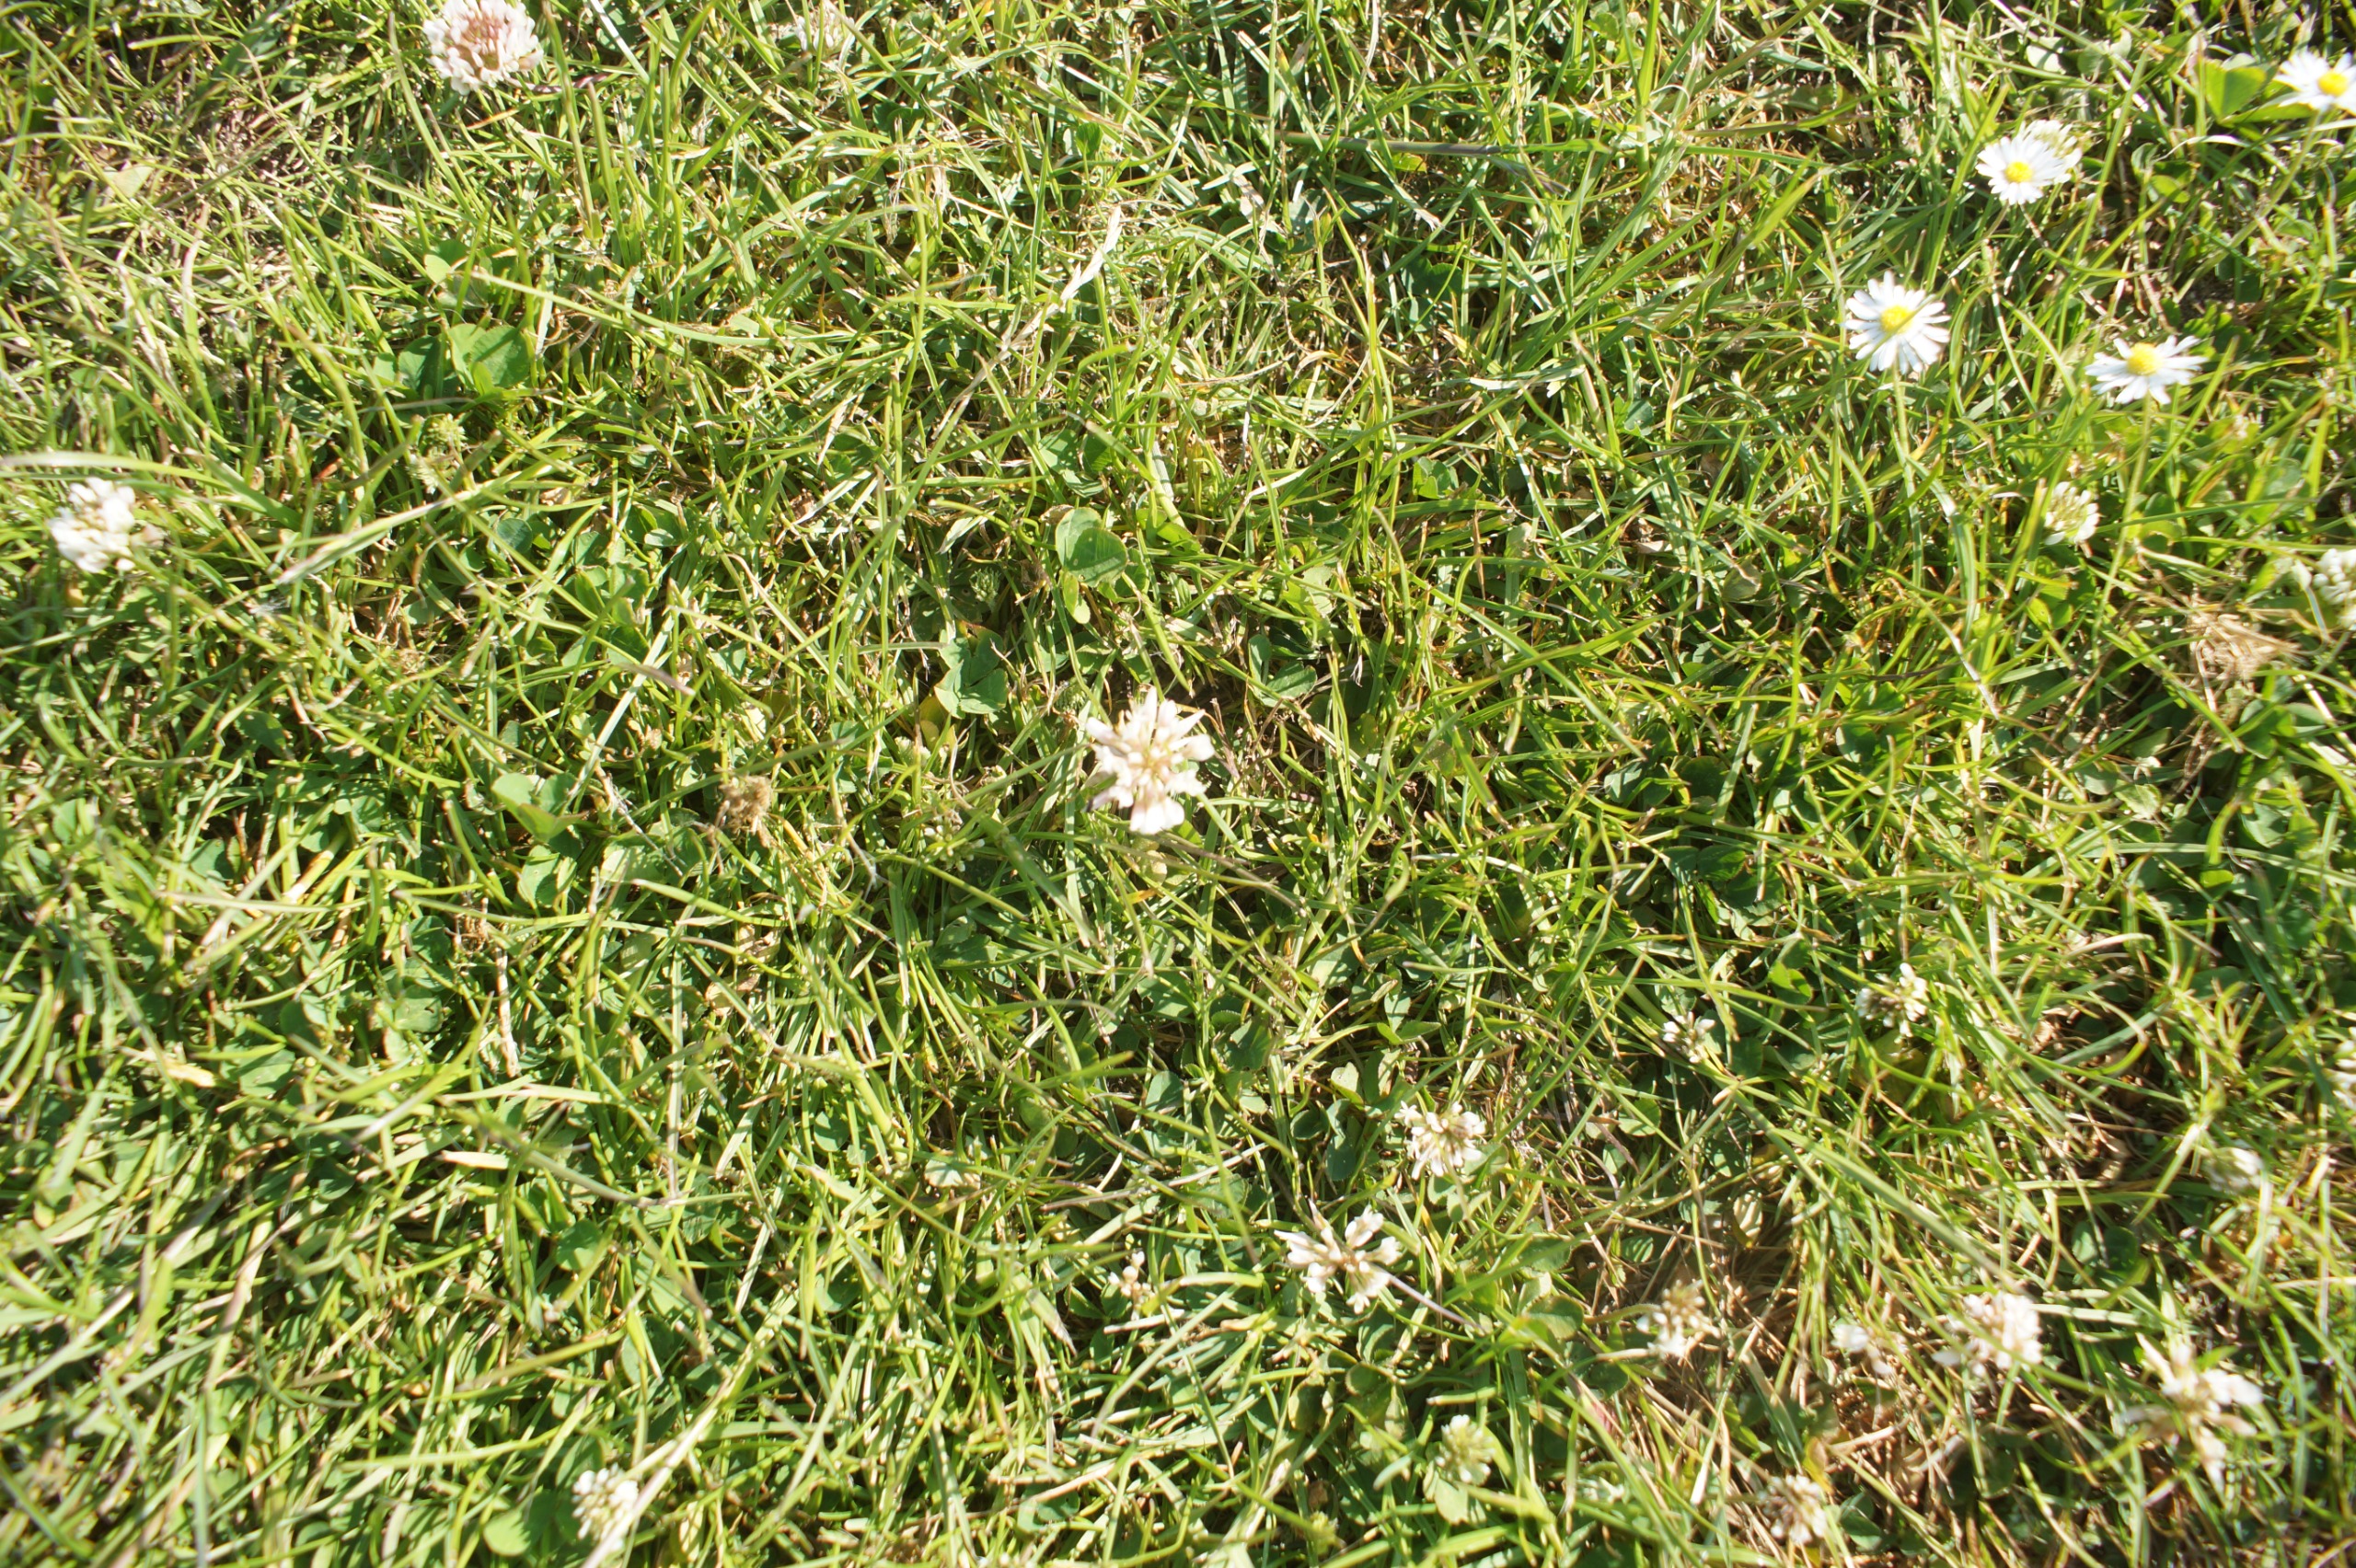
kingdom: Plantae
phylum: Tracheophyta
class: Magnoliopsida
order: Fabales
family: Fabaceae
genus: Trifolium
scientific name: Trifolium repens
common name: Hvid-kløver
